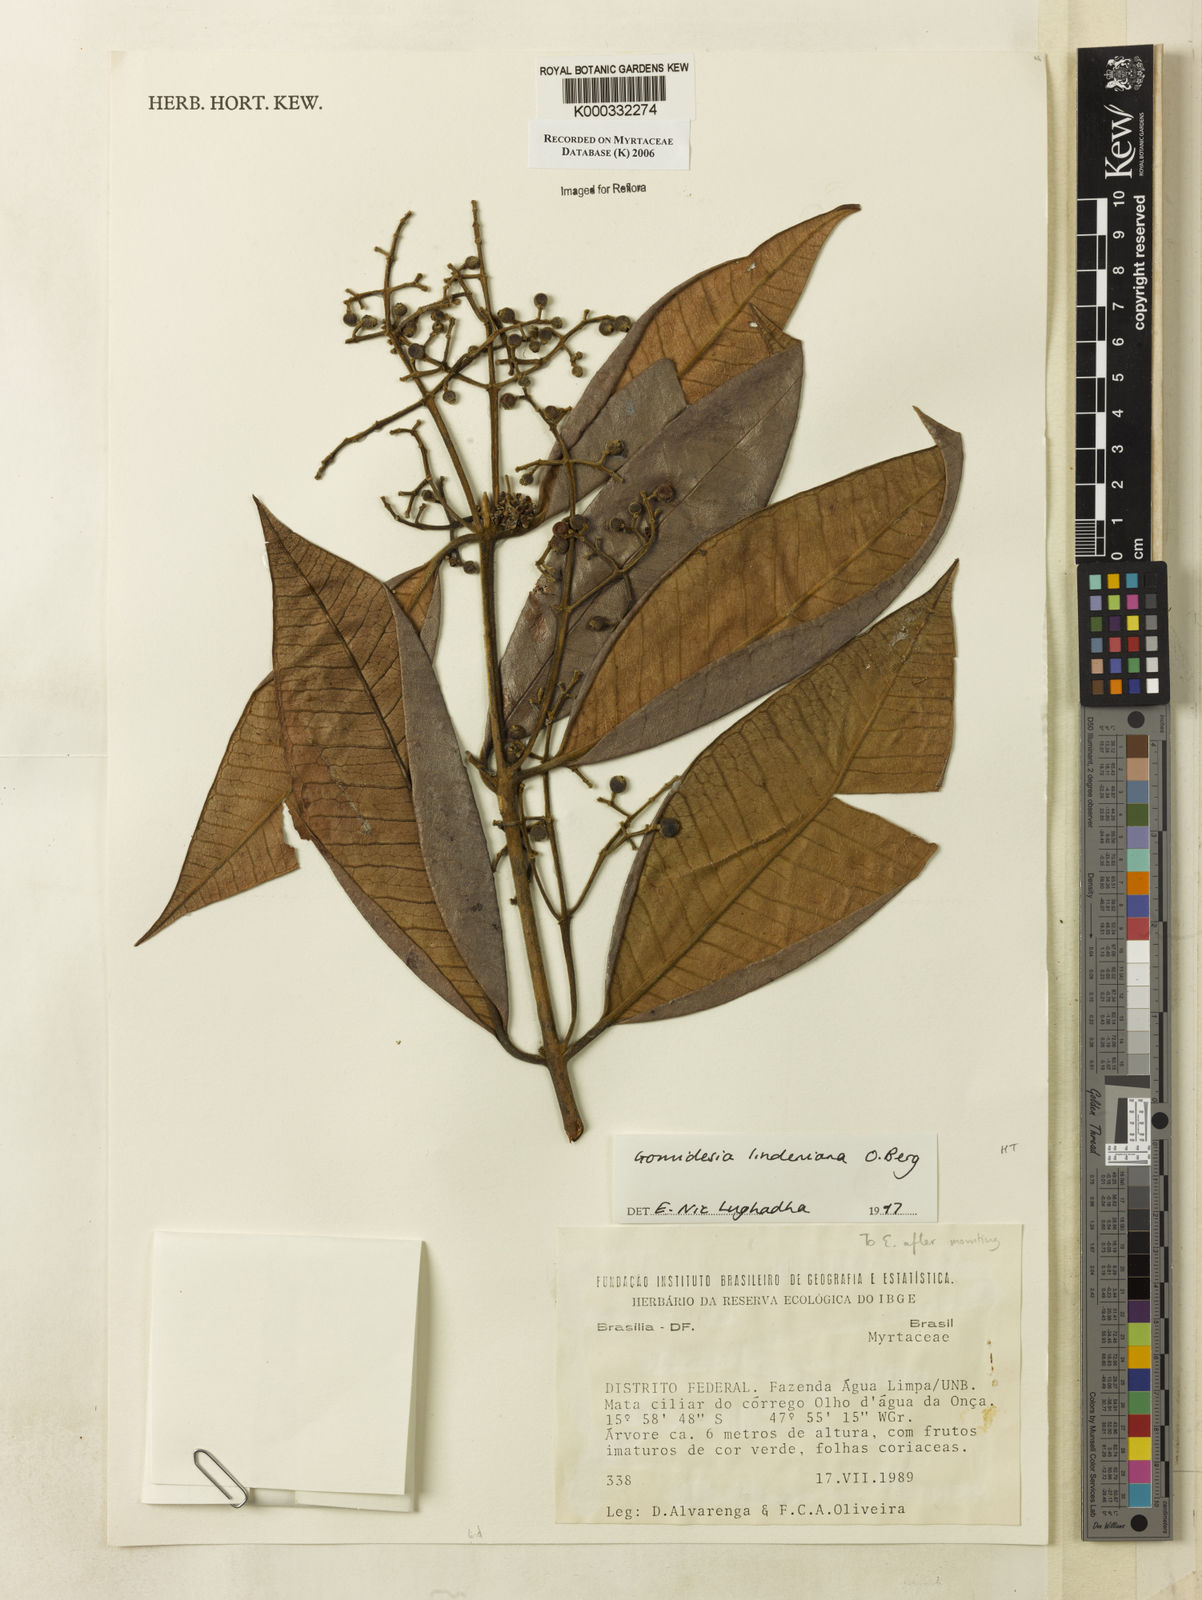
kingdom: Plantae
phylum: Tracheophyta
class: Magnoliopsida
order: Myrtales
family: Myrtaceae
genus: Myrcia
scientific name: Myrcia fenzliana
